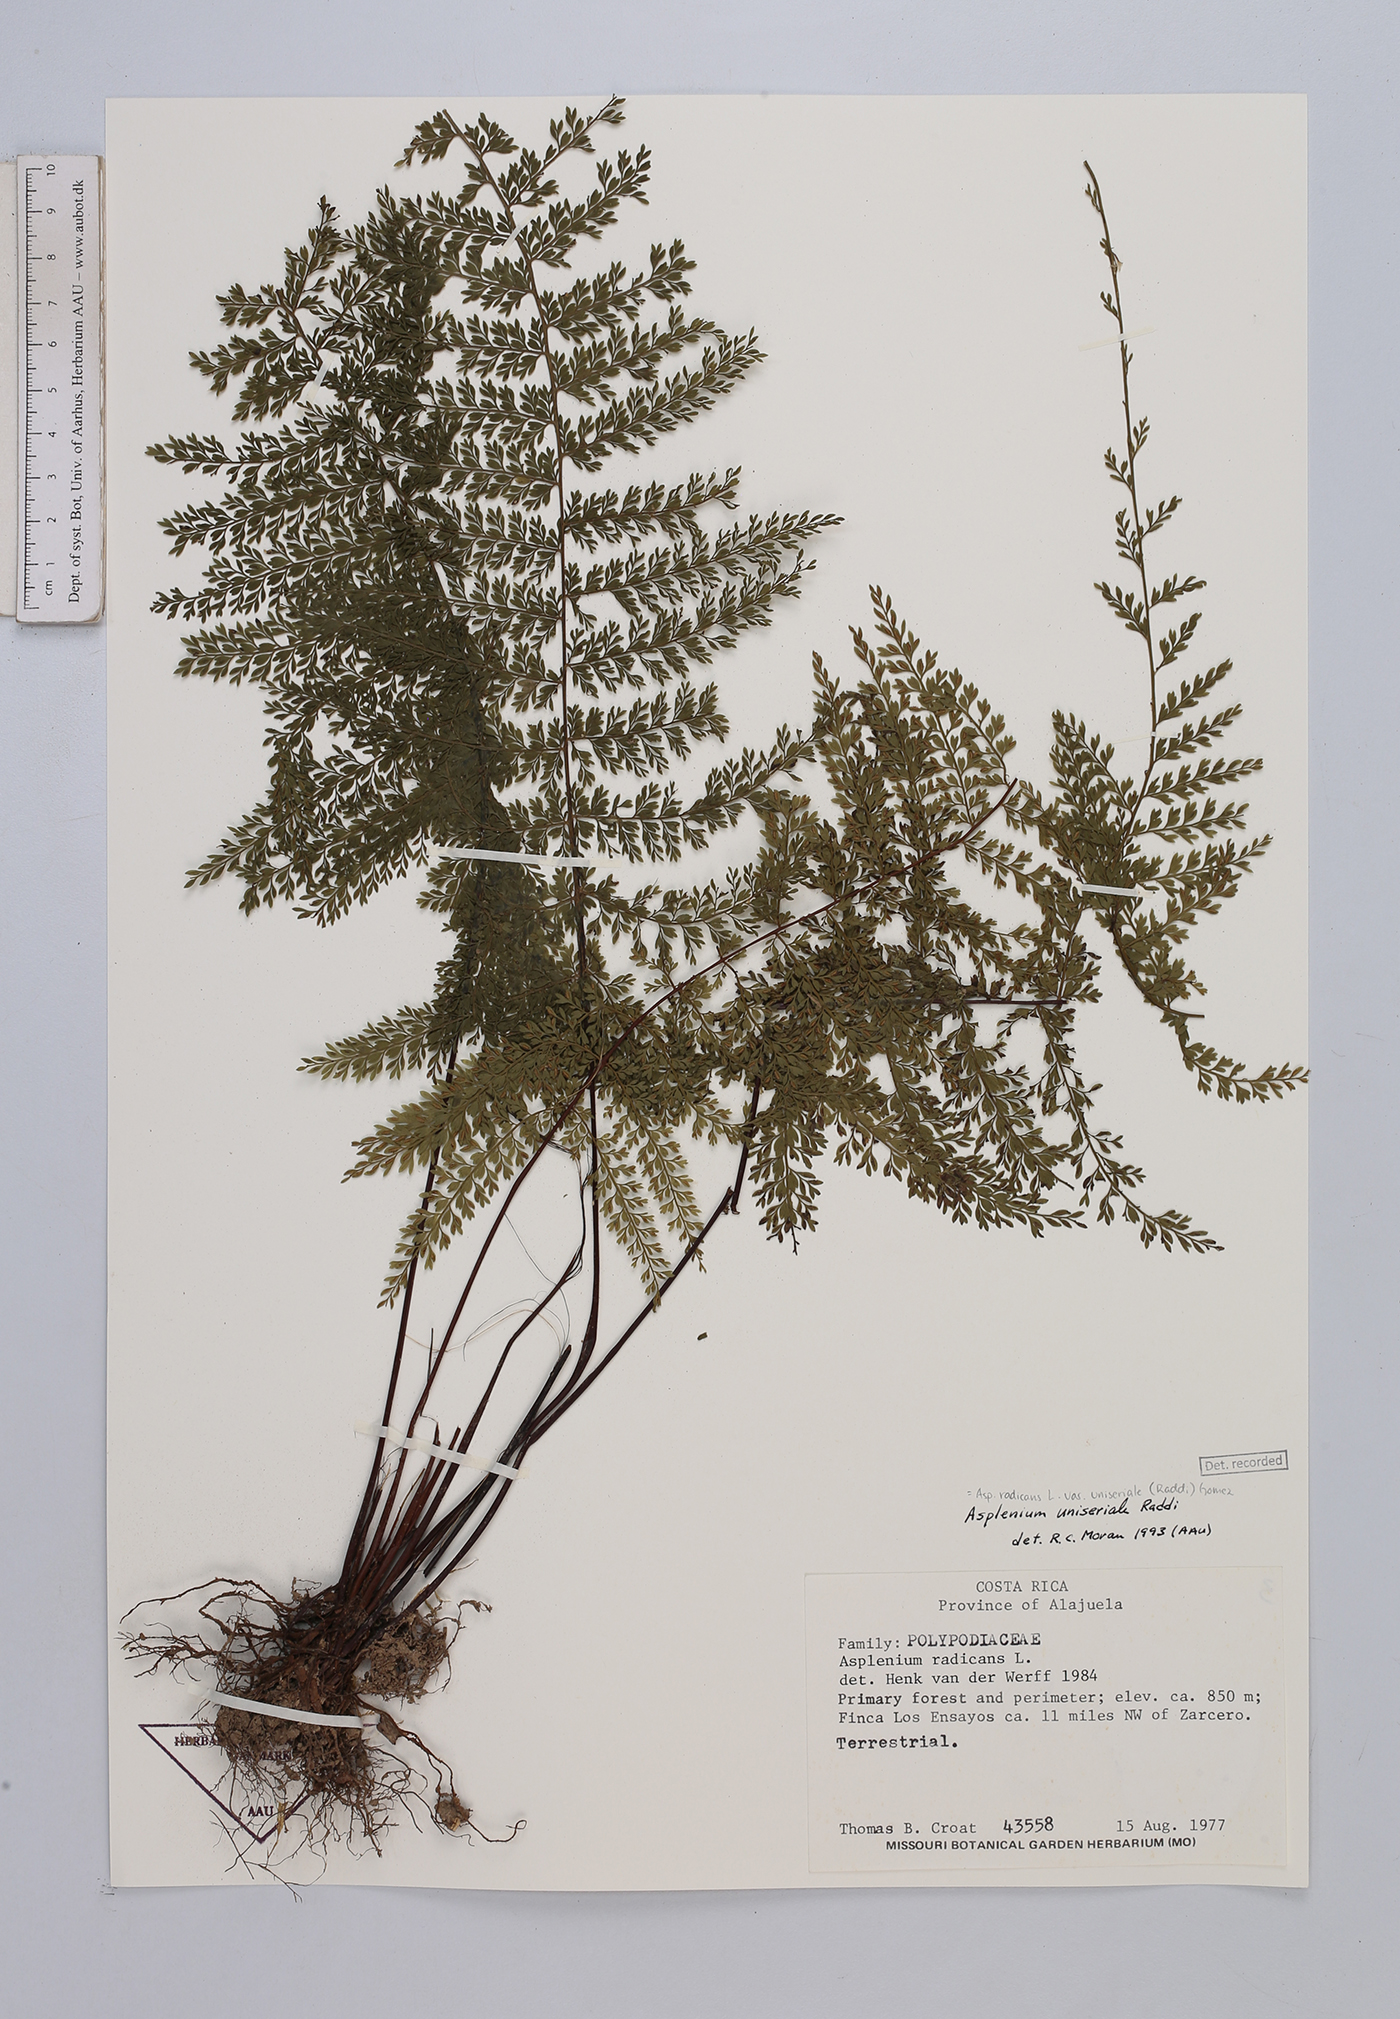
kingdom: Plantae
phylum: Tracheophyta
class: Polypodiopsida
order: Polypodiales
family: Aspleniaceae
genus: Asplenium
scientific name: Asplenium uniseriale
